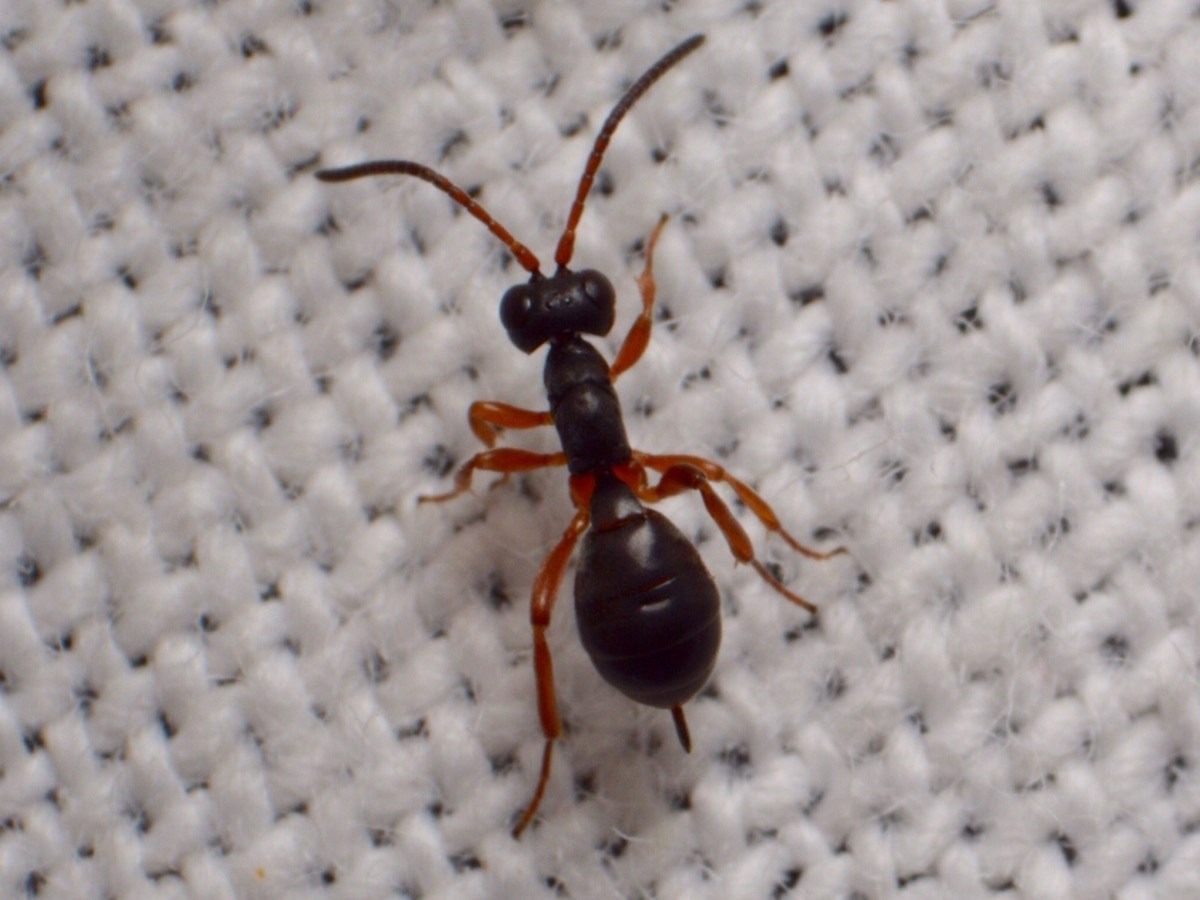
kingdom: Animalia
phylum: Arthropoda
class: Insecta
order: Hymenoptera
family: Ichneumonidae
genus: Gelis
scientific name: Gelis spurius
